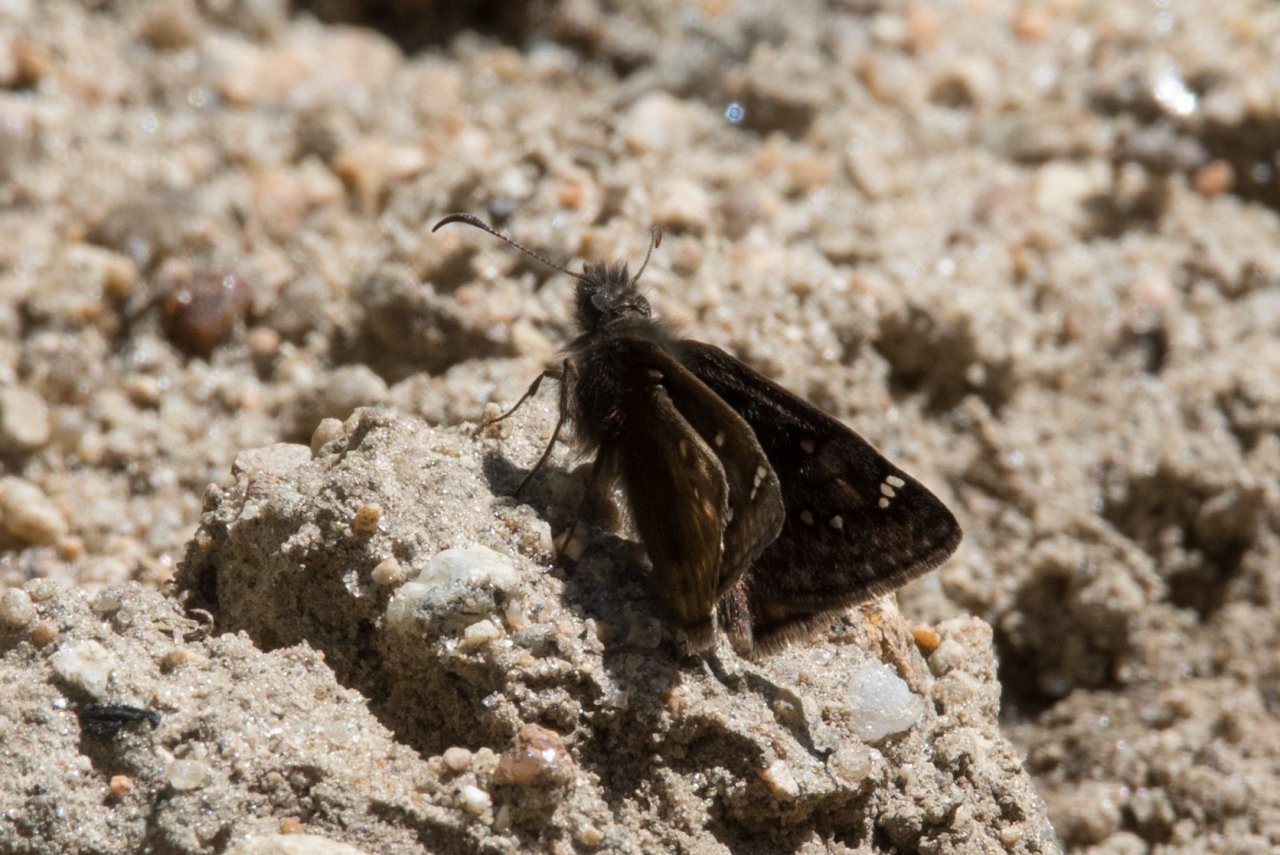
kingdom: Animalia
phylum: Arthropoda
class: Insecta
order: Lepidoptera
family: Hesperiidae
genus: Gesta
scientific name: Gesta
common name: Juvenal's Duskywing
